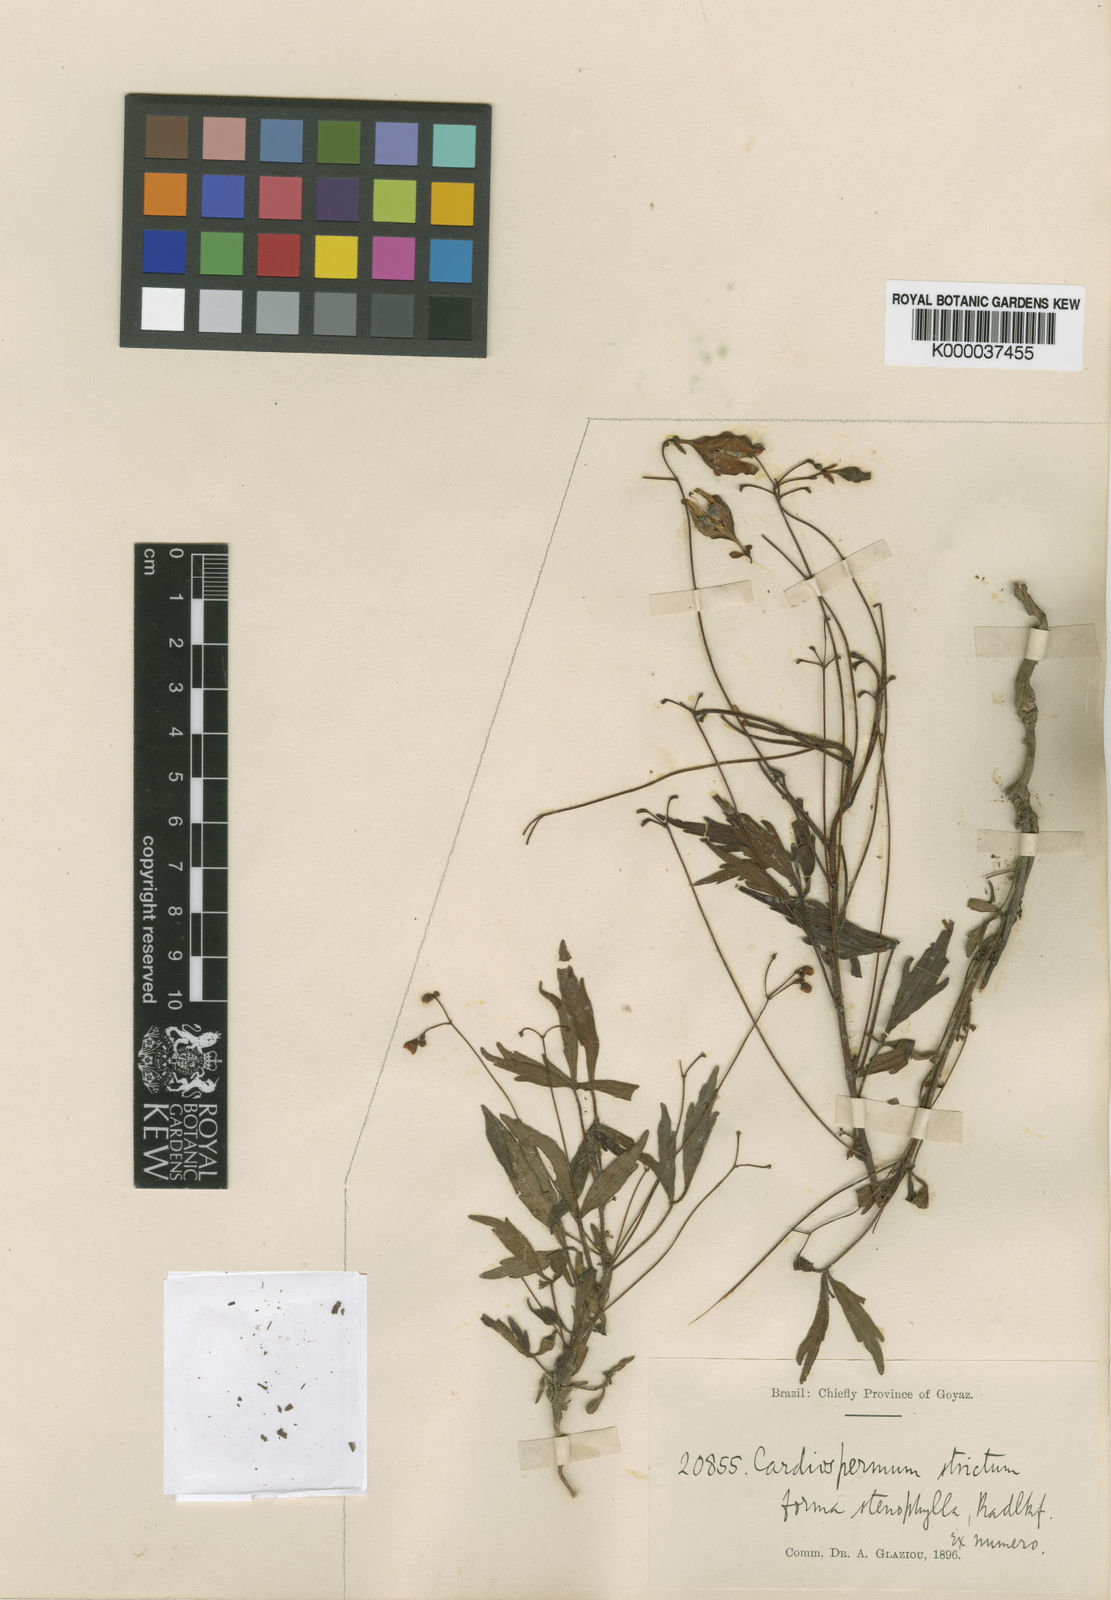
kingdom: Plantae
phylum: Tracheophyta
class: Magnoliopsida
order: Sapindales
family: Sapindaceae
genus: Cardiospermum
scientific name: Cardiospermum anomalum
